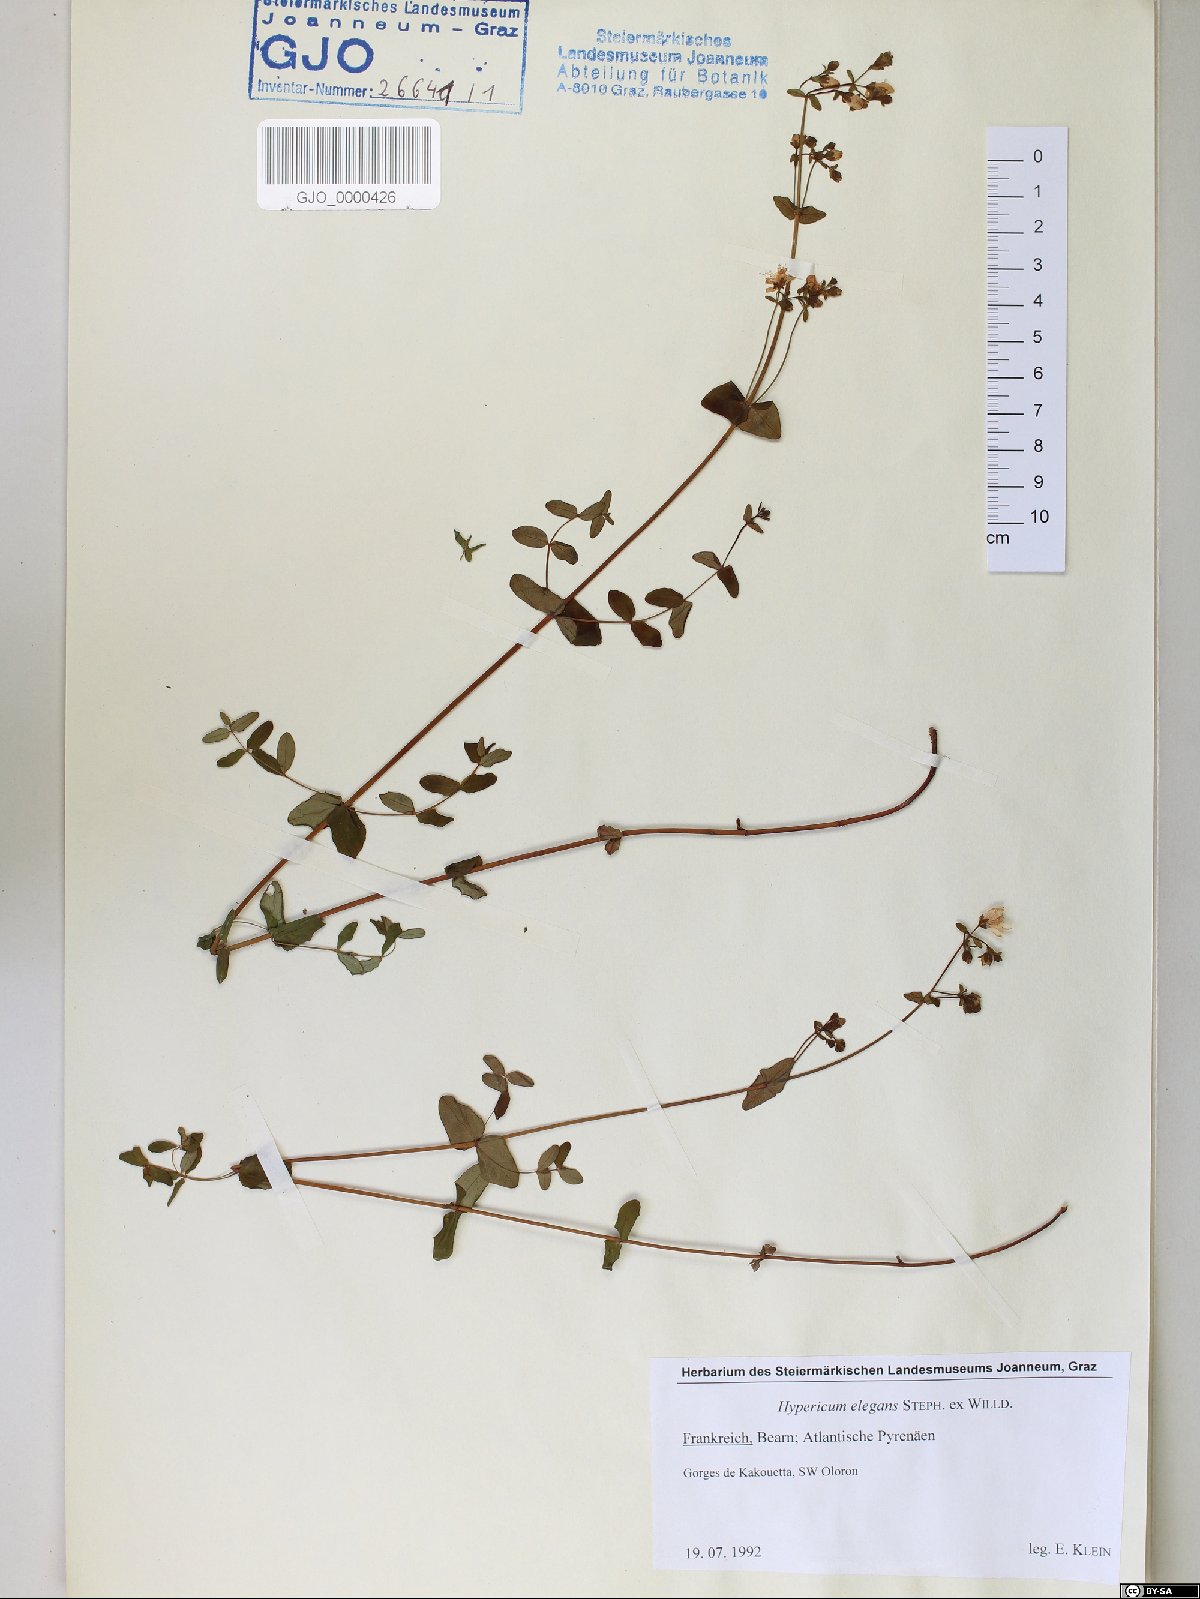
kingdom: Plantae
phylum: Tracheophyta
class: Magnoliopsida
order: Malpighiales
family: Hypericaceae
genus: Hypericum
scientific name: Hypericum elegans
